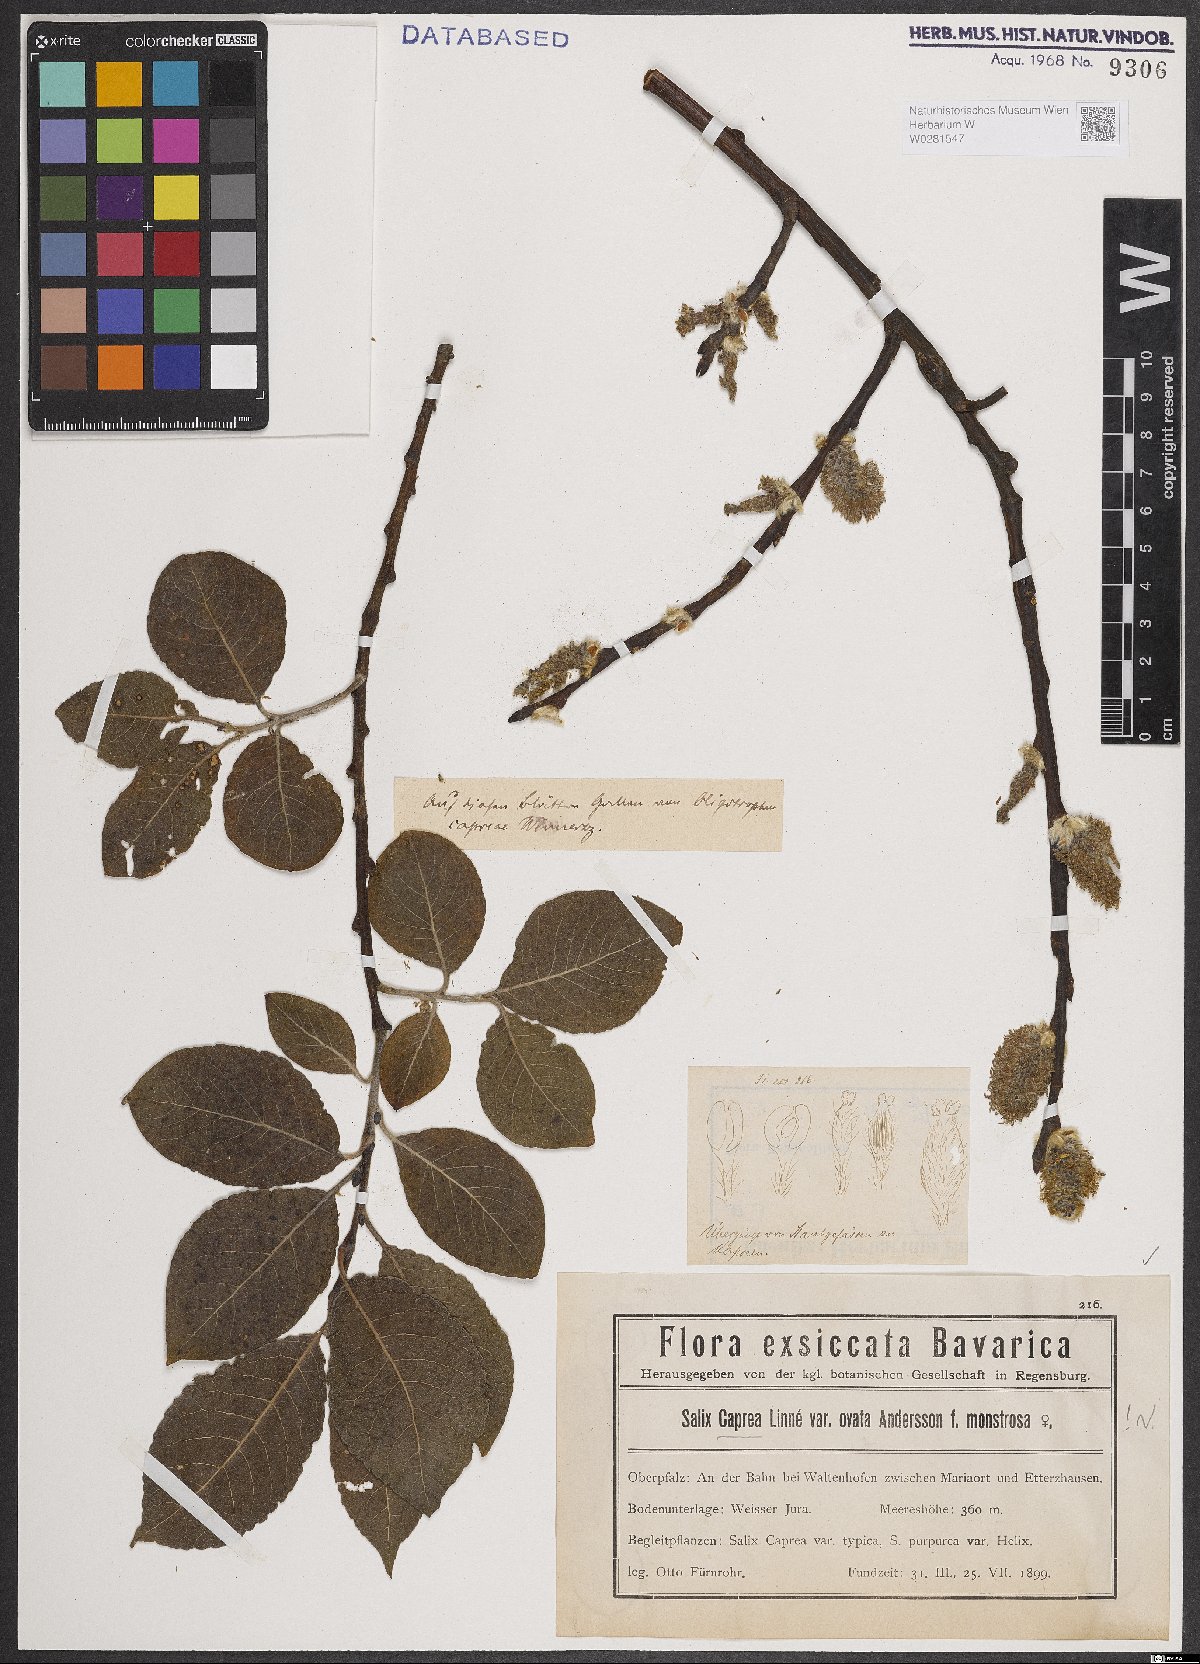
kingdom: Plantae
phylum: Tracheophyta
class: Magnoliopsida
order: Malpighiales
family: Salicaceae
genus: Salix
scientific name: Salix caprea
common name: Goat willow
